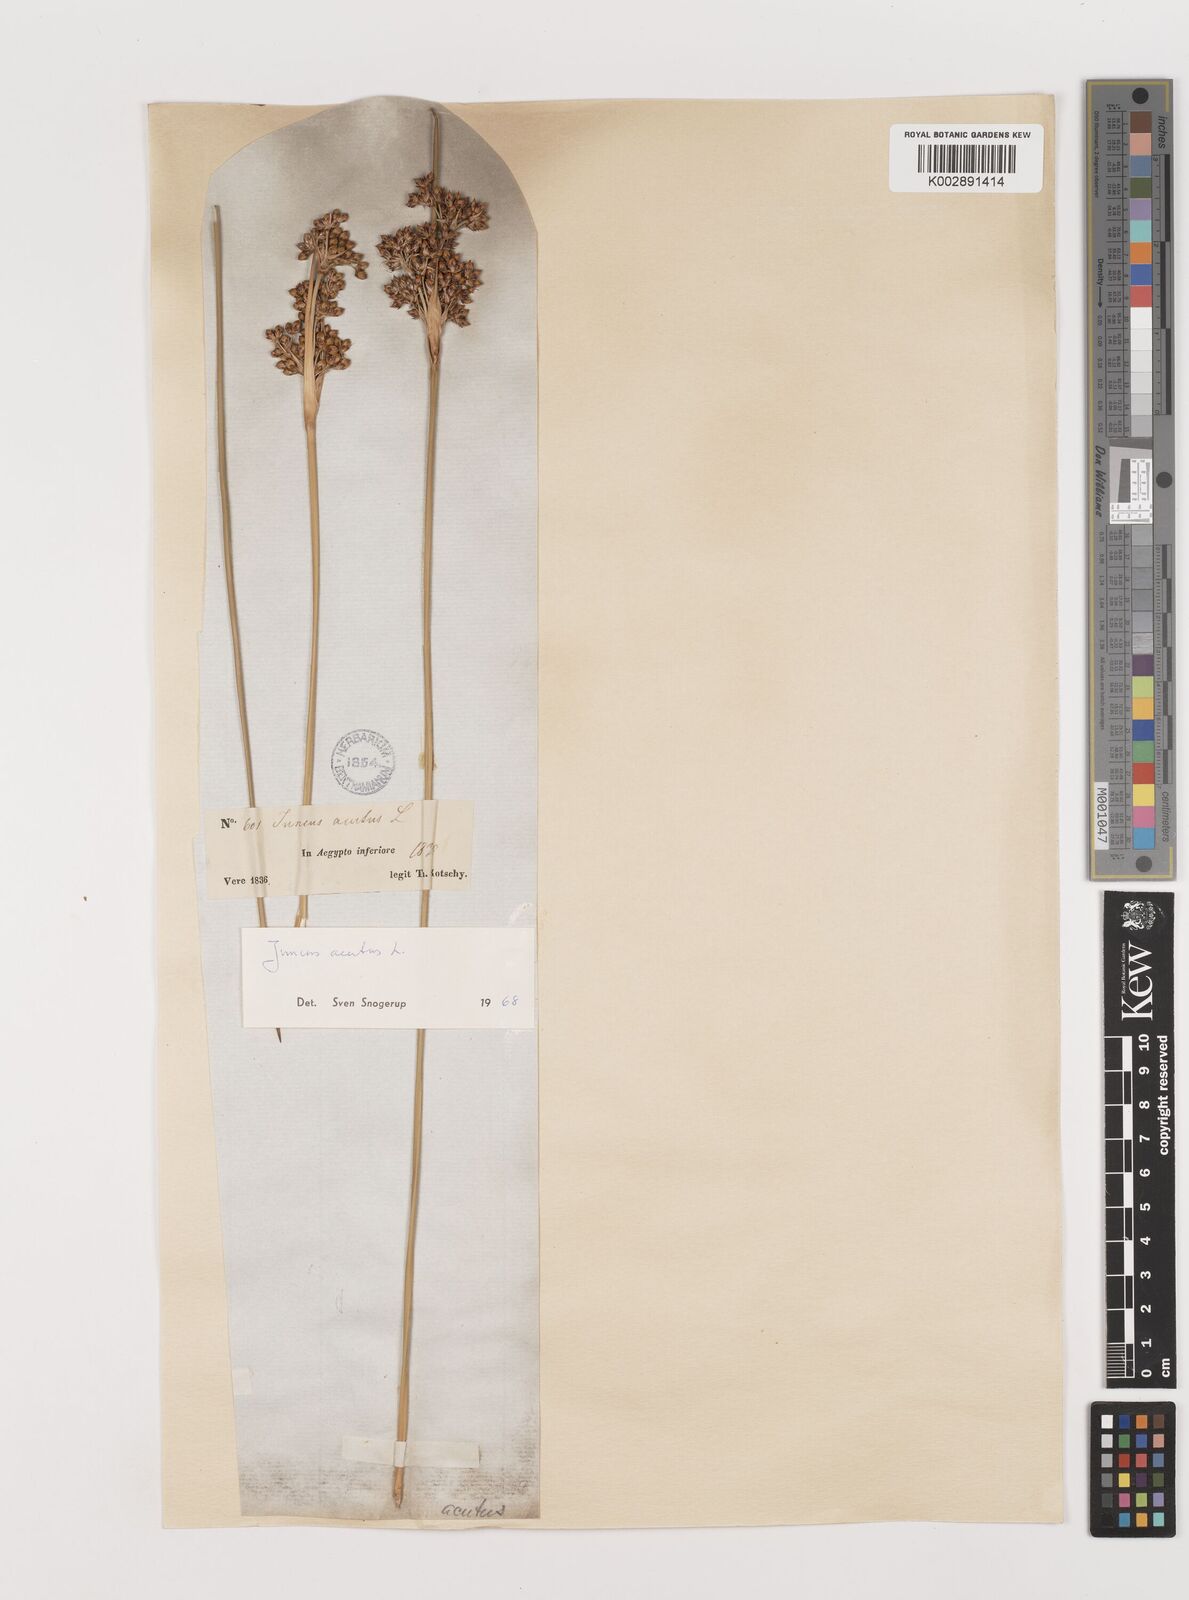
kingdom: Plantae
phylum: Tracheophyta
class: Liliopsida
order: Poales
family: Juncaceae
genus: Juncus
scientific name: Juncus acutus
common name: Sharp rush
